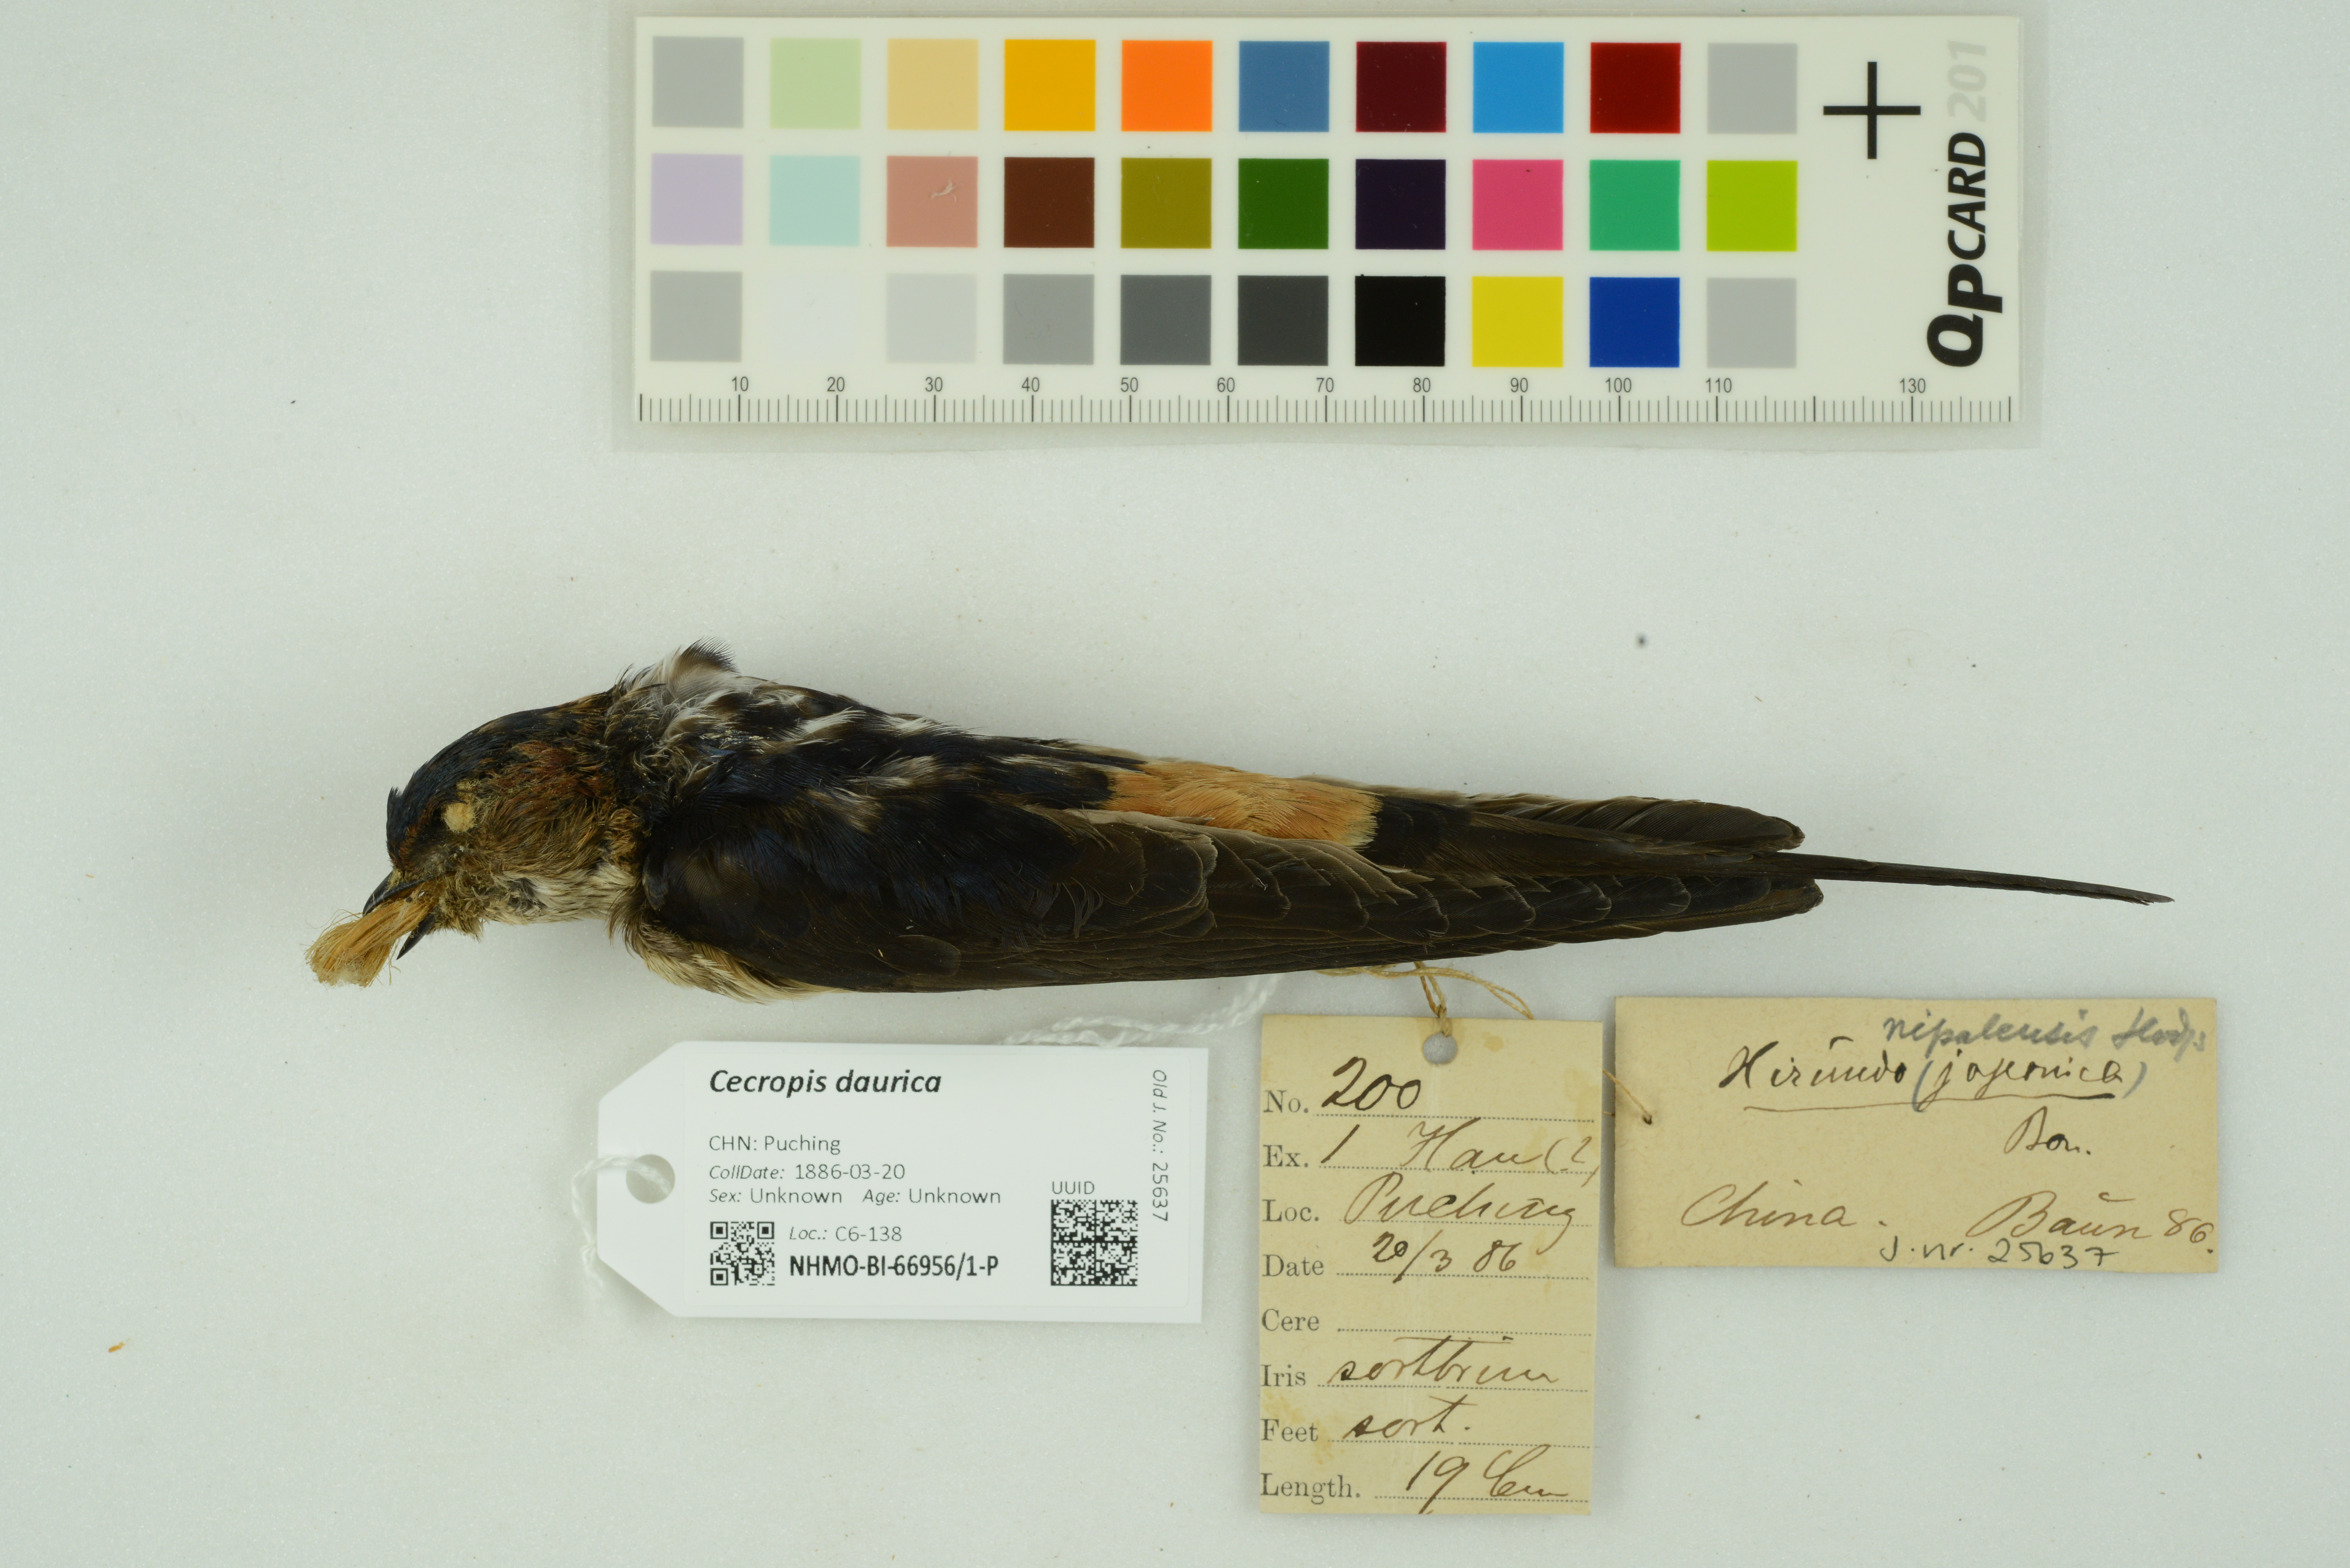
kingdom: Animalia
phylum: Chordata
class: Aves
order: Passeriformes
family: Hirundinidae
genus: Cecropis
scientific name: Cecropis daurica
